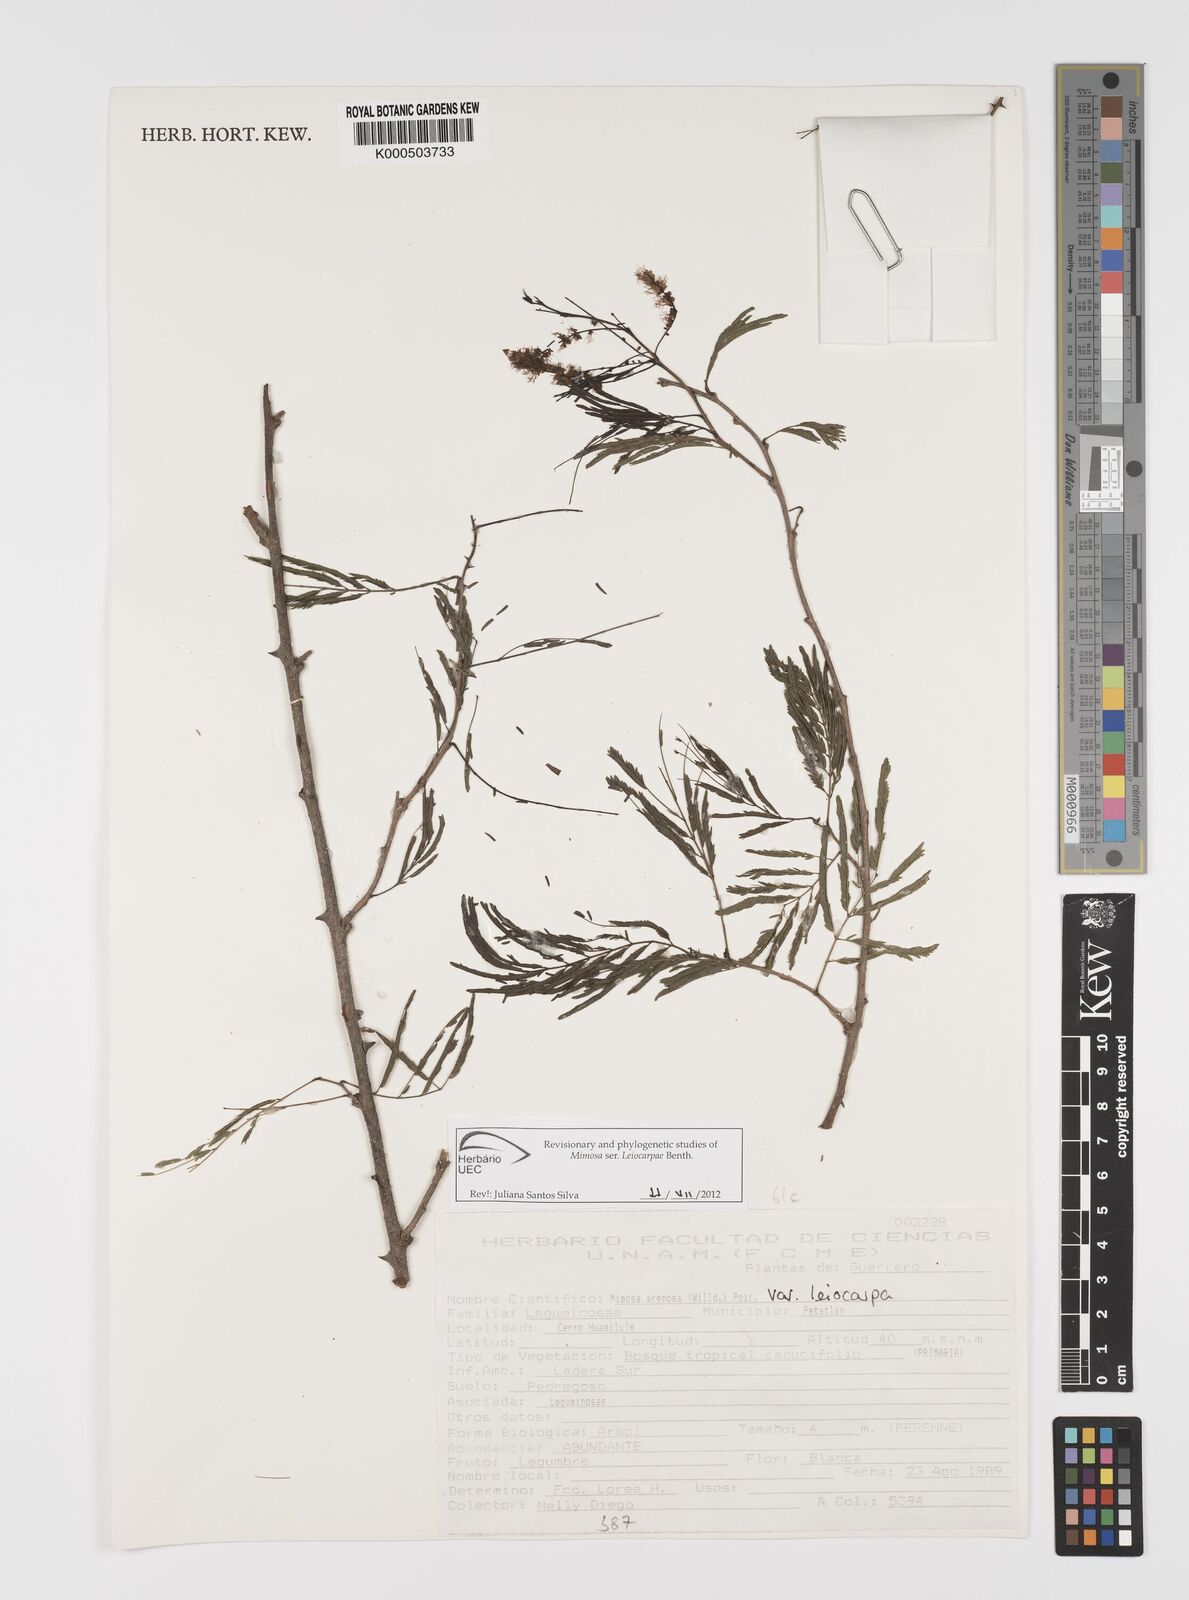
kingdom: Plantae
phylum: Tracheophyta
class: Magnoliopsida
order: Fabales
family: Fabaceae
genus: Mimosa
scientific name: Mimosa arenosa
